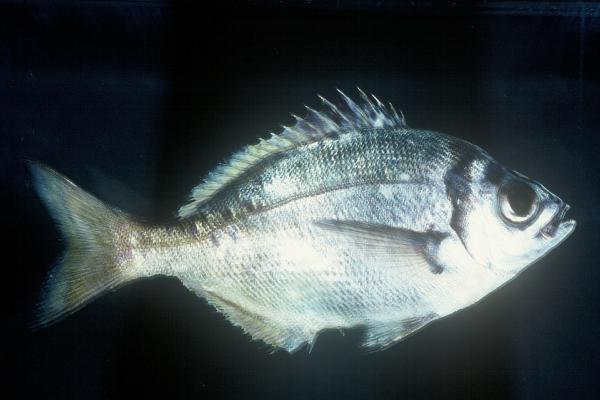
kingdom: Animalia
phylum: Chordata
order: Perciformes
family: Sparidae
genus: Boopsoidea
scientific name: Boopsoidea inornata
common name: Fransmadam
